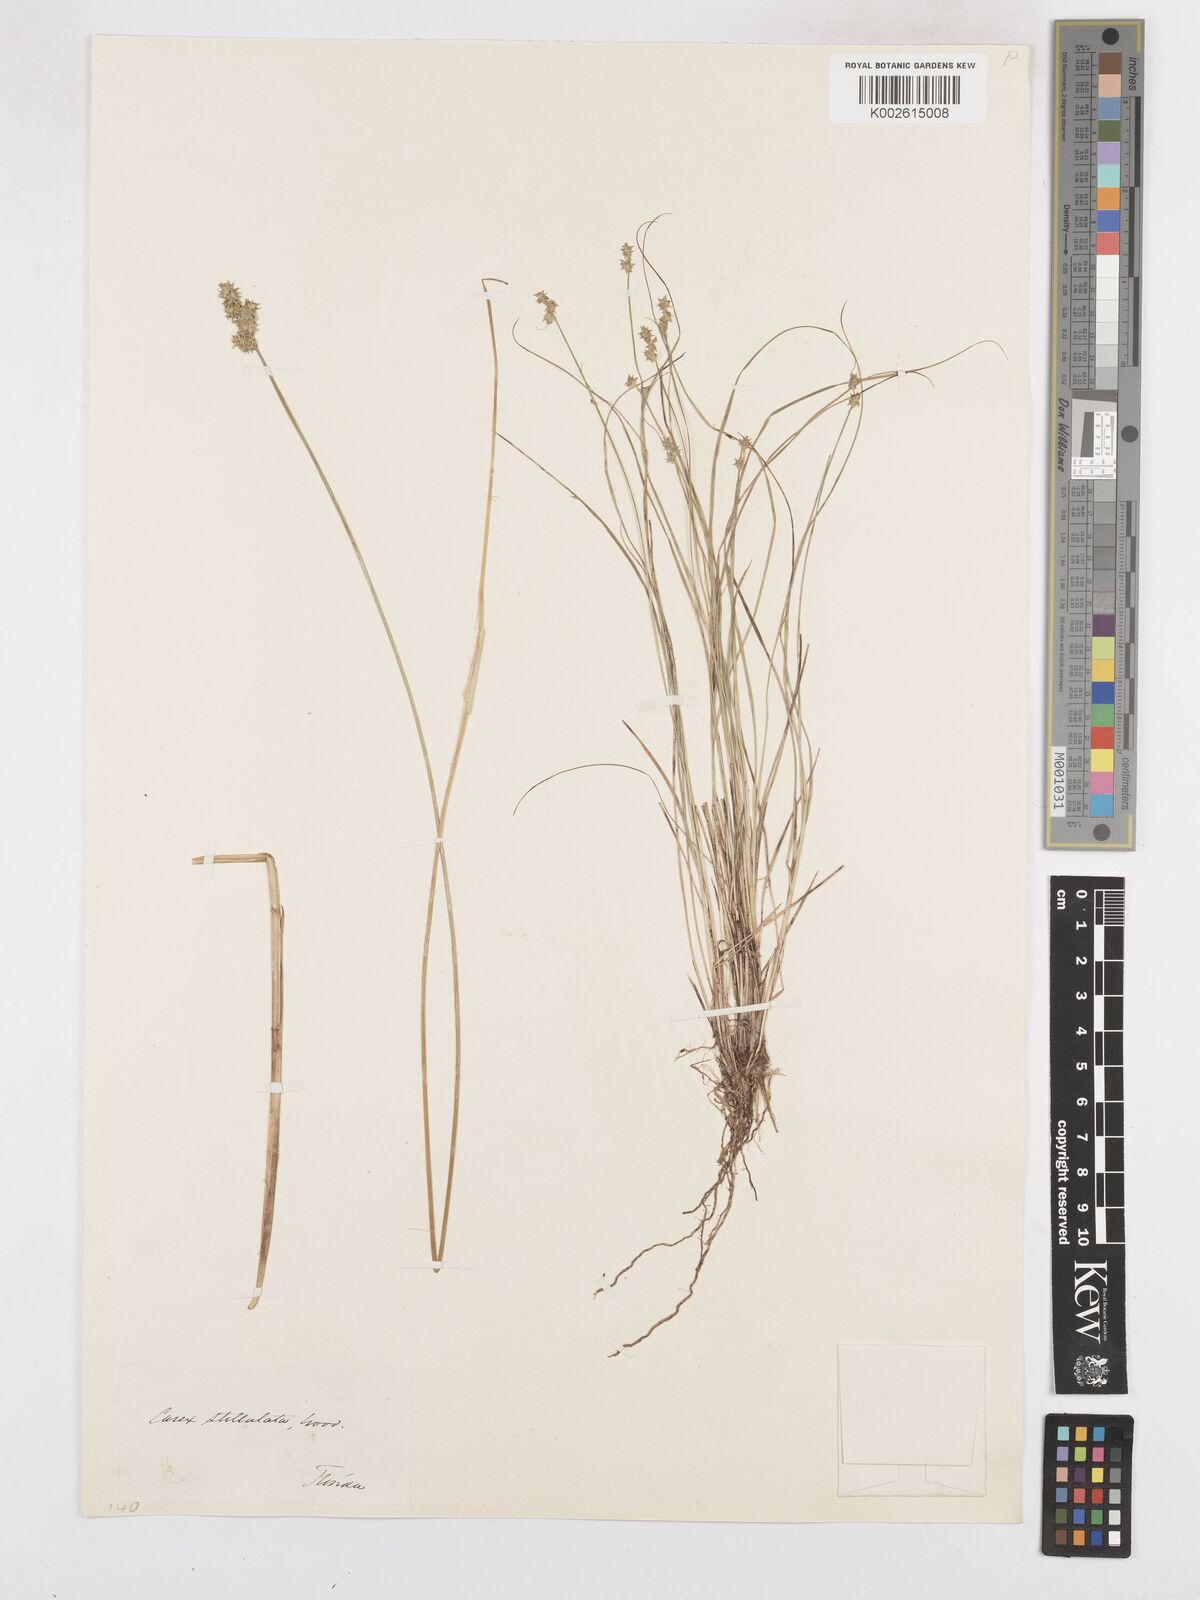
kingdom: Plantae
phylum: Tracheophyta
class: Liliopsida
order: Poales
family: Cyperaceae
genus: Carex
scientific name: Carex laeviculmis
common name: Smooth sedge
